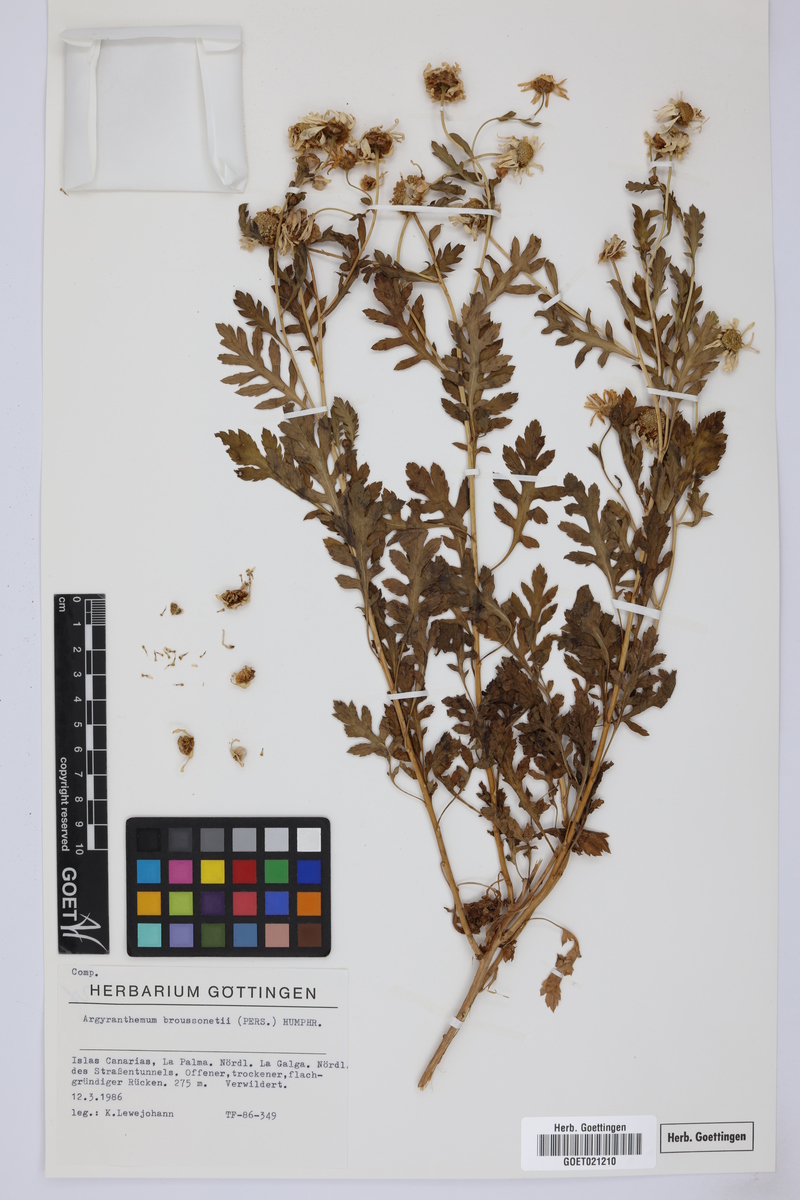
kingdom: Plantae
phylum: Tracheophyta
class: Magnoliopsida
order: Asterales
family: Asteraceae
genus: Argyranthemum
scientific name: Argyranthemum broussonetii
